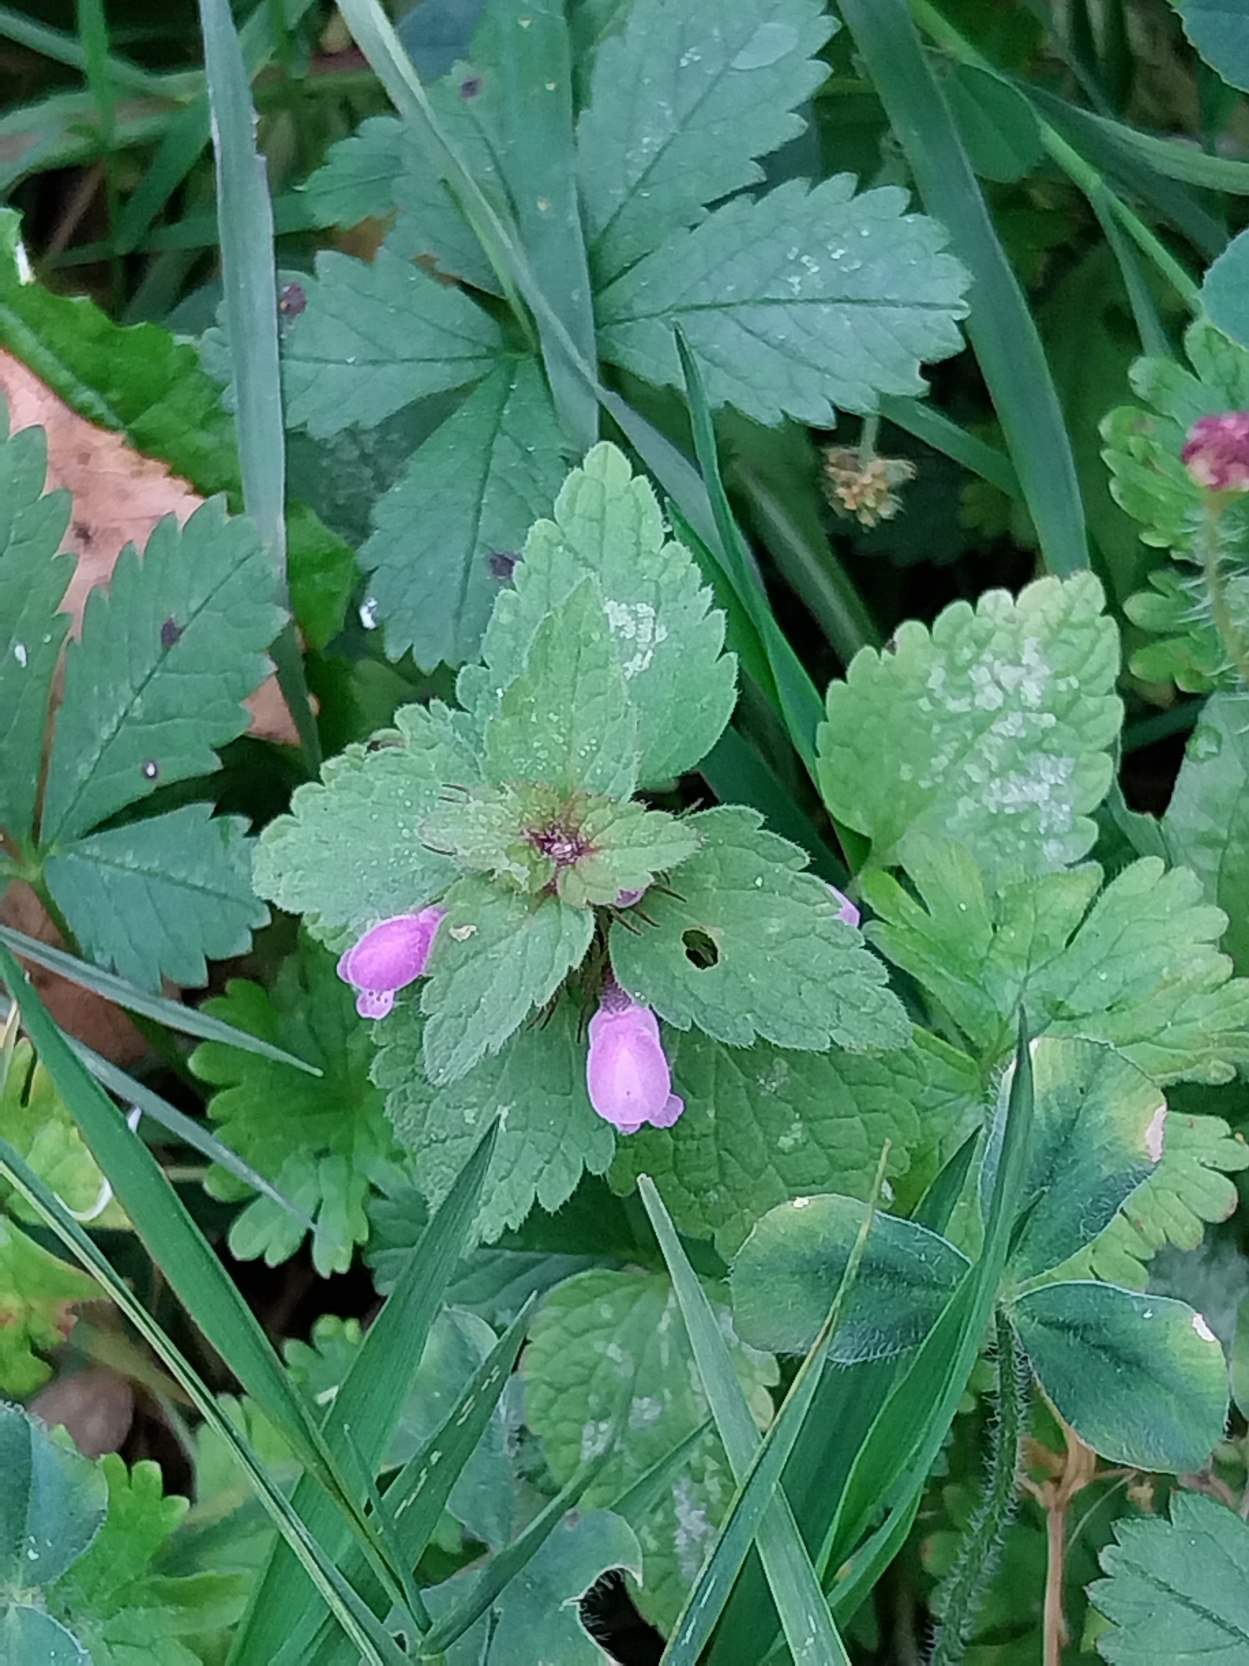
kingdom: Plantae
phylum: Tracheophyta
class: Magnoliopsida
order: Lamiales
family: Lamiaceae
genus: Lamium
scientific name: Lamium purpureum
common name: Rød tvetand
